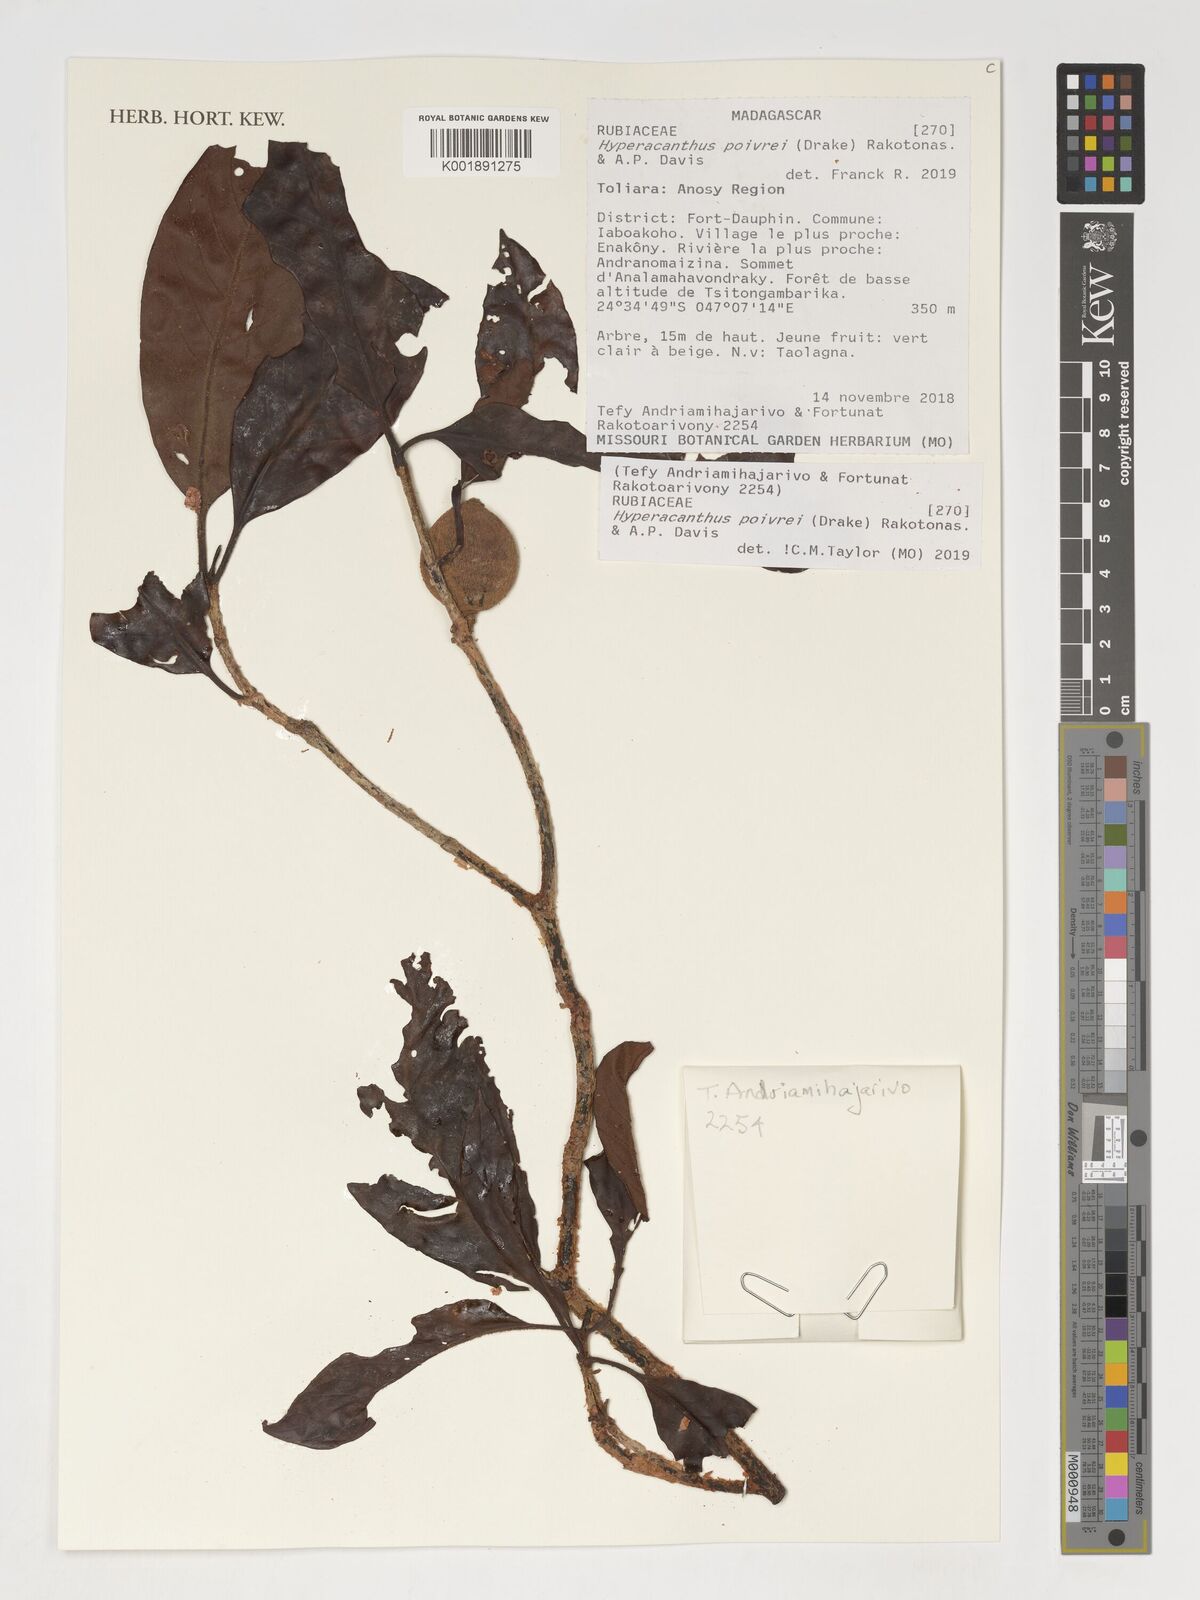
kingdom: Plantae
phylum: Tracheophyta
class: Magnoliopsida
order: Gentianales
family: Rubiaceae
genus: Hyperacanthus
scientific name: Hyperacanthus poivrei
